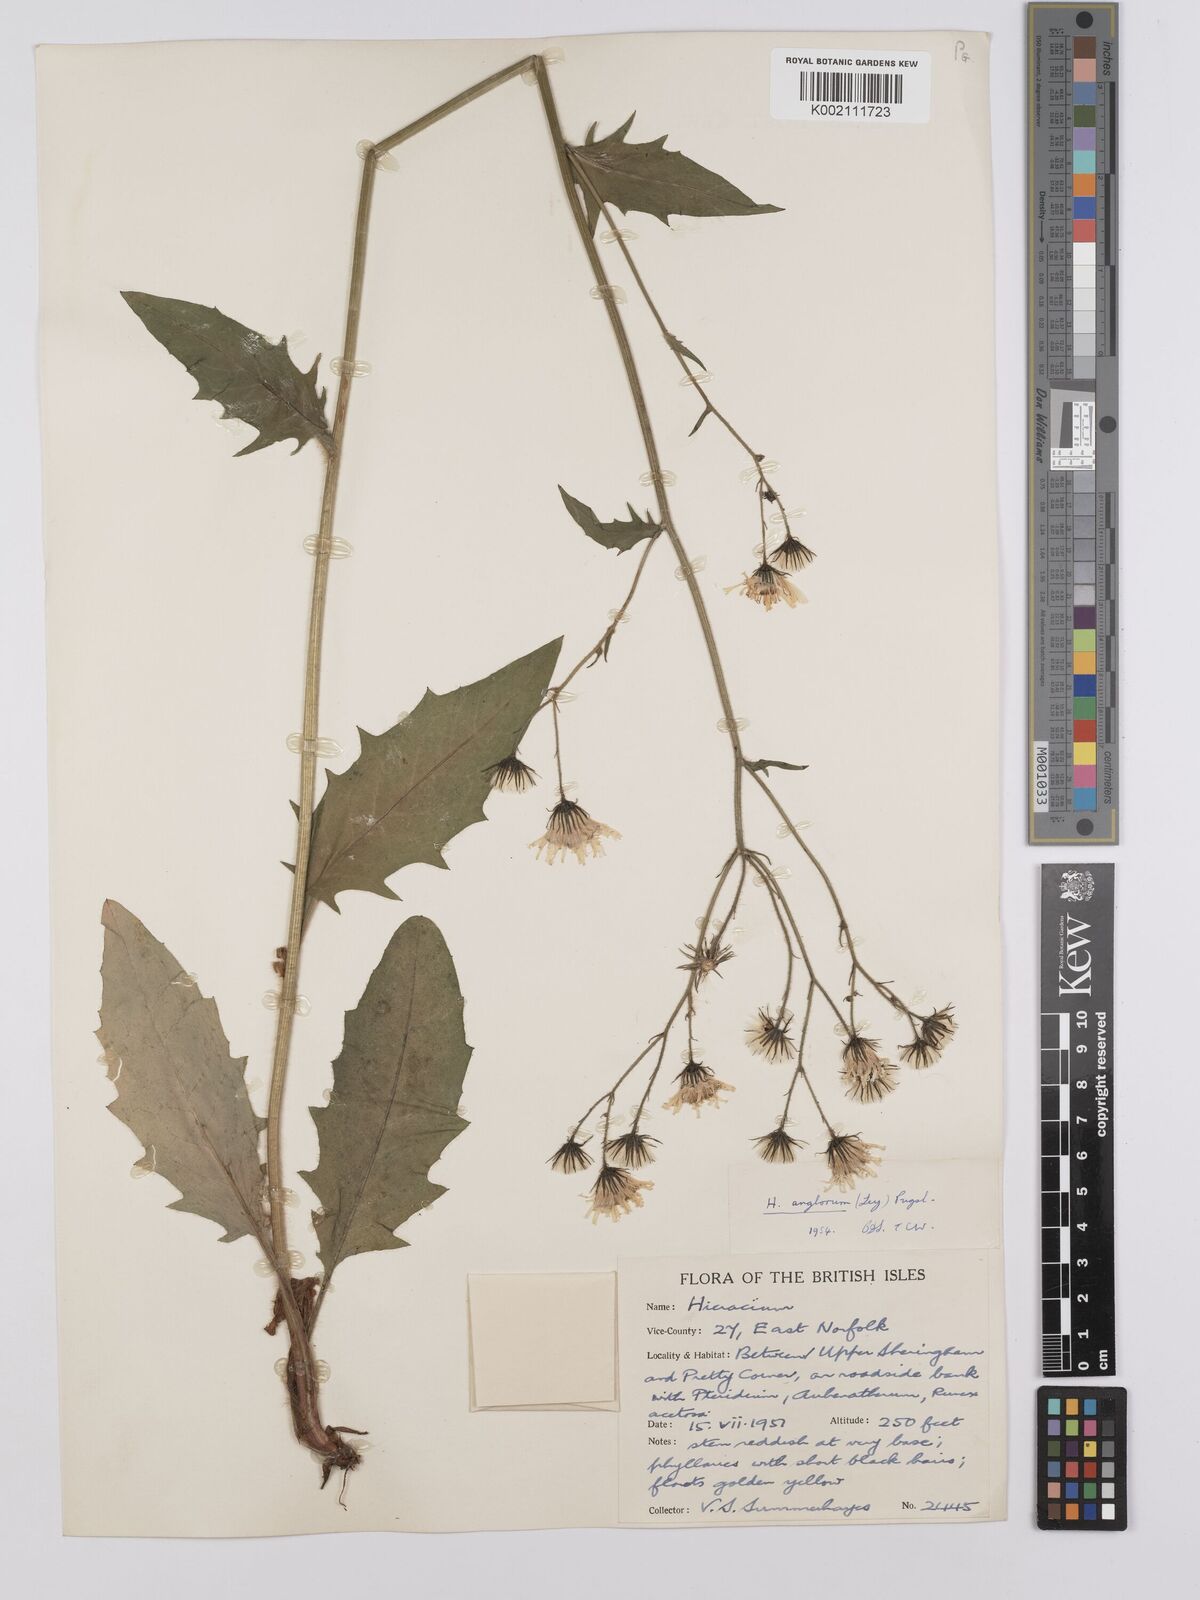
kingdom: Plantae
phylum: Tracheophyta
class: Magnoliopsida
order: Asterales
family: Asteraceae
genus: Hieracium
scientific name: Hieracium anglorum
